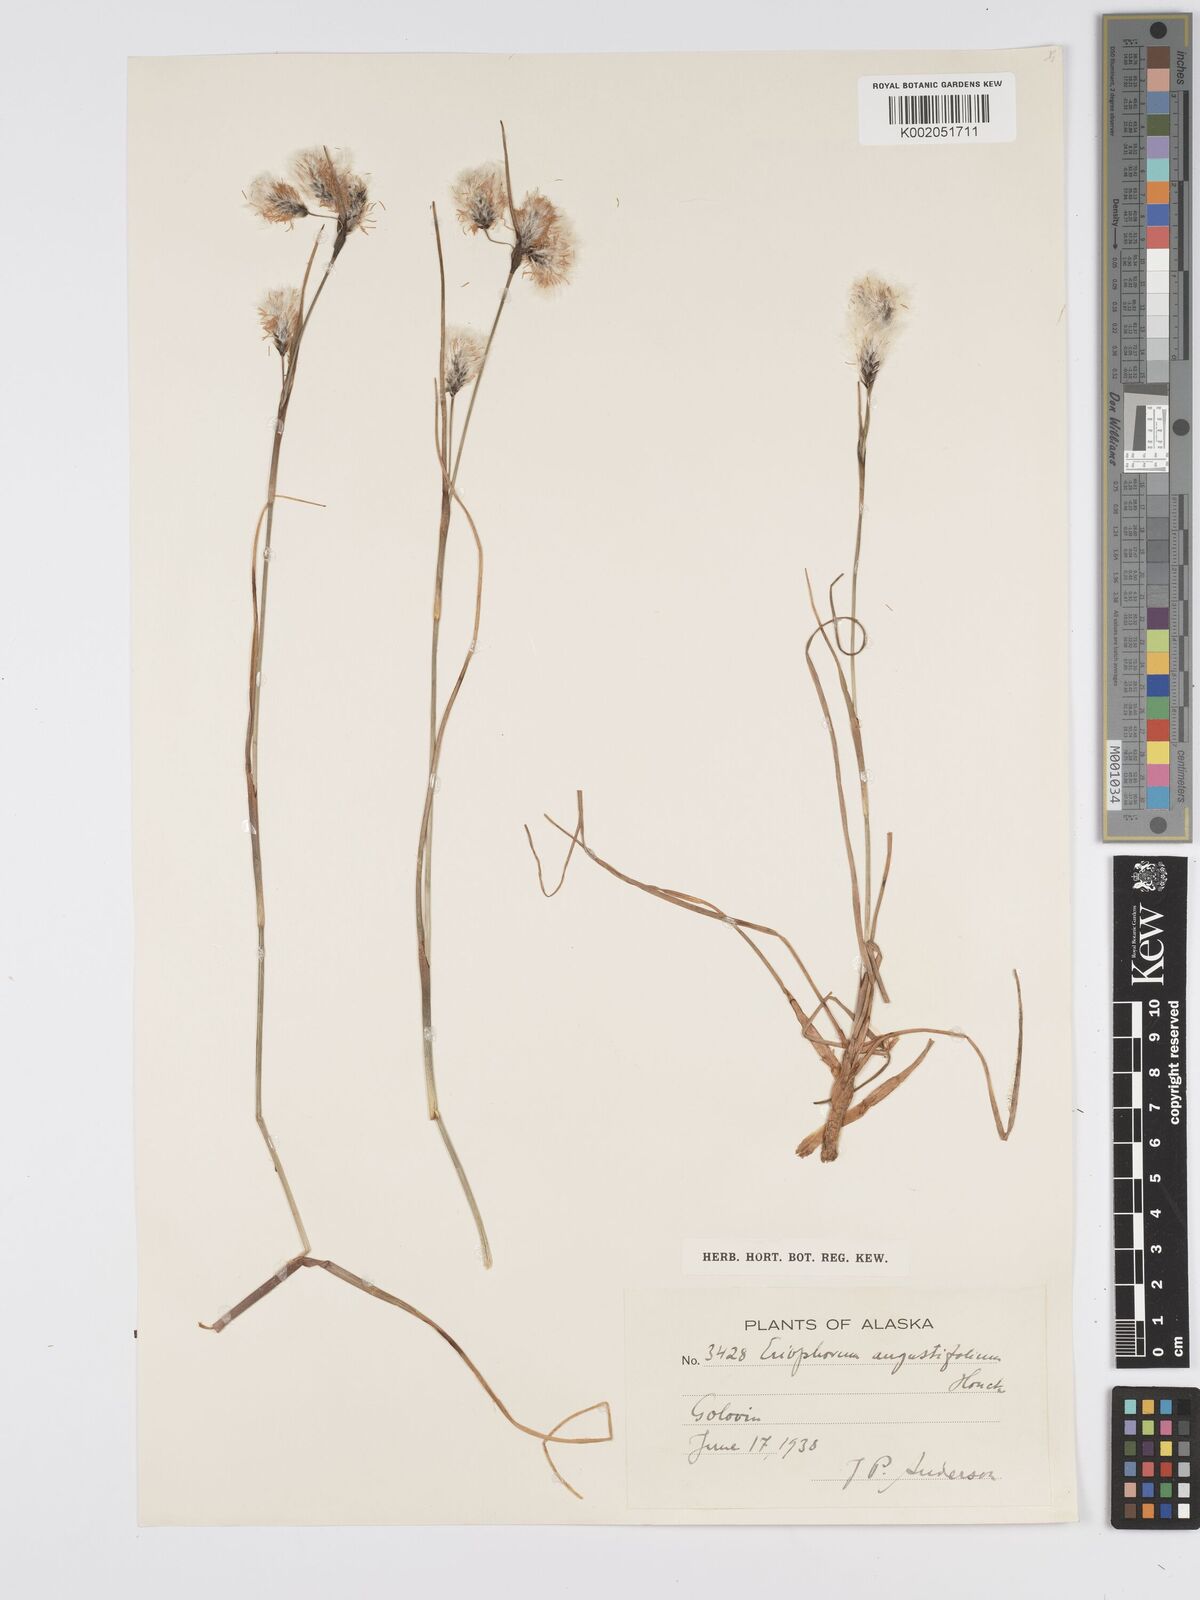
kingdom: Plantae
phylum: Tracheophyta
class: Liliopsida
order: Poales
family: Cyperaceae
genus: Eriophorum
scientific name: Eriophorum angustifolium
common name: Common cottongrass
